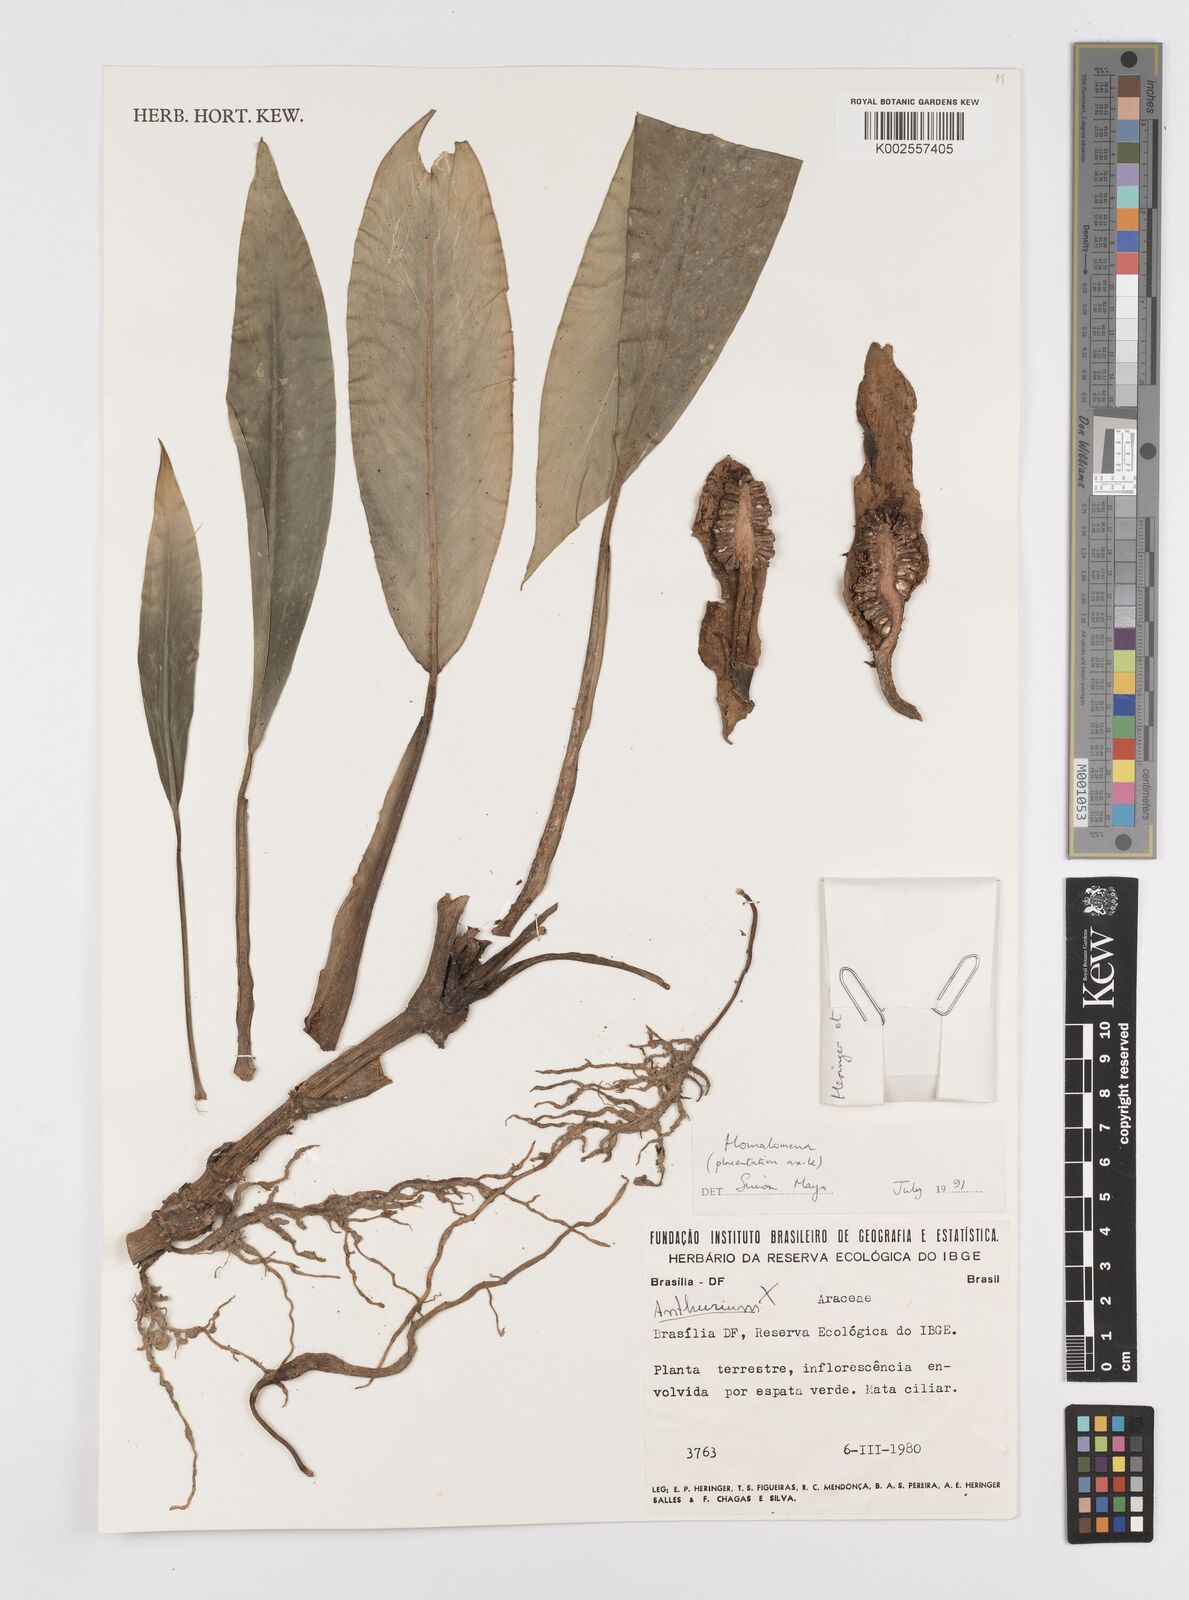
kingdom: Plantae
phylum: Tracheophyta
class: Liliopsida
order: Alismatales
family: Araceae
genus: Adelonema
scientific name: Adelonema
